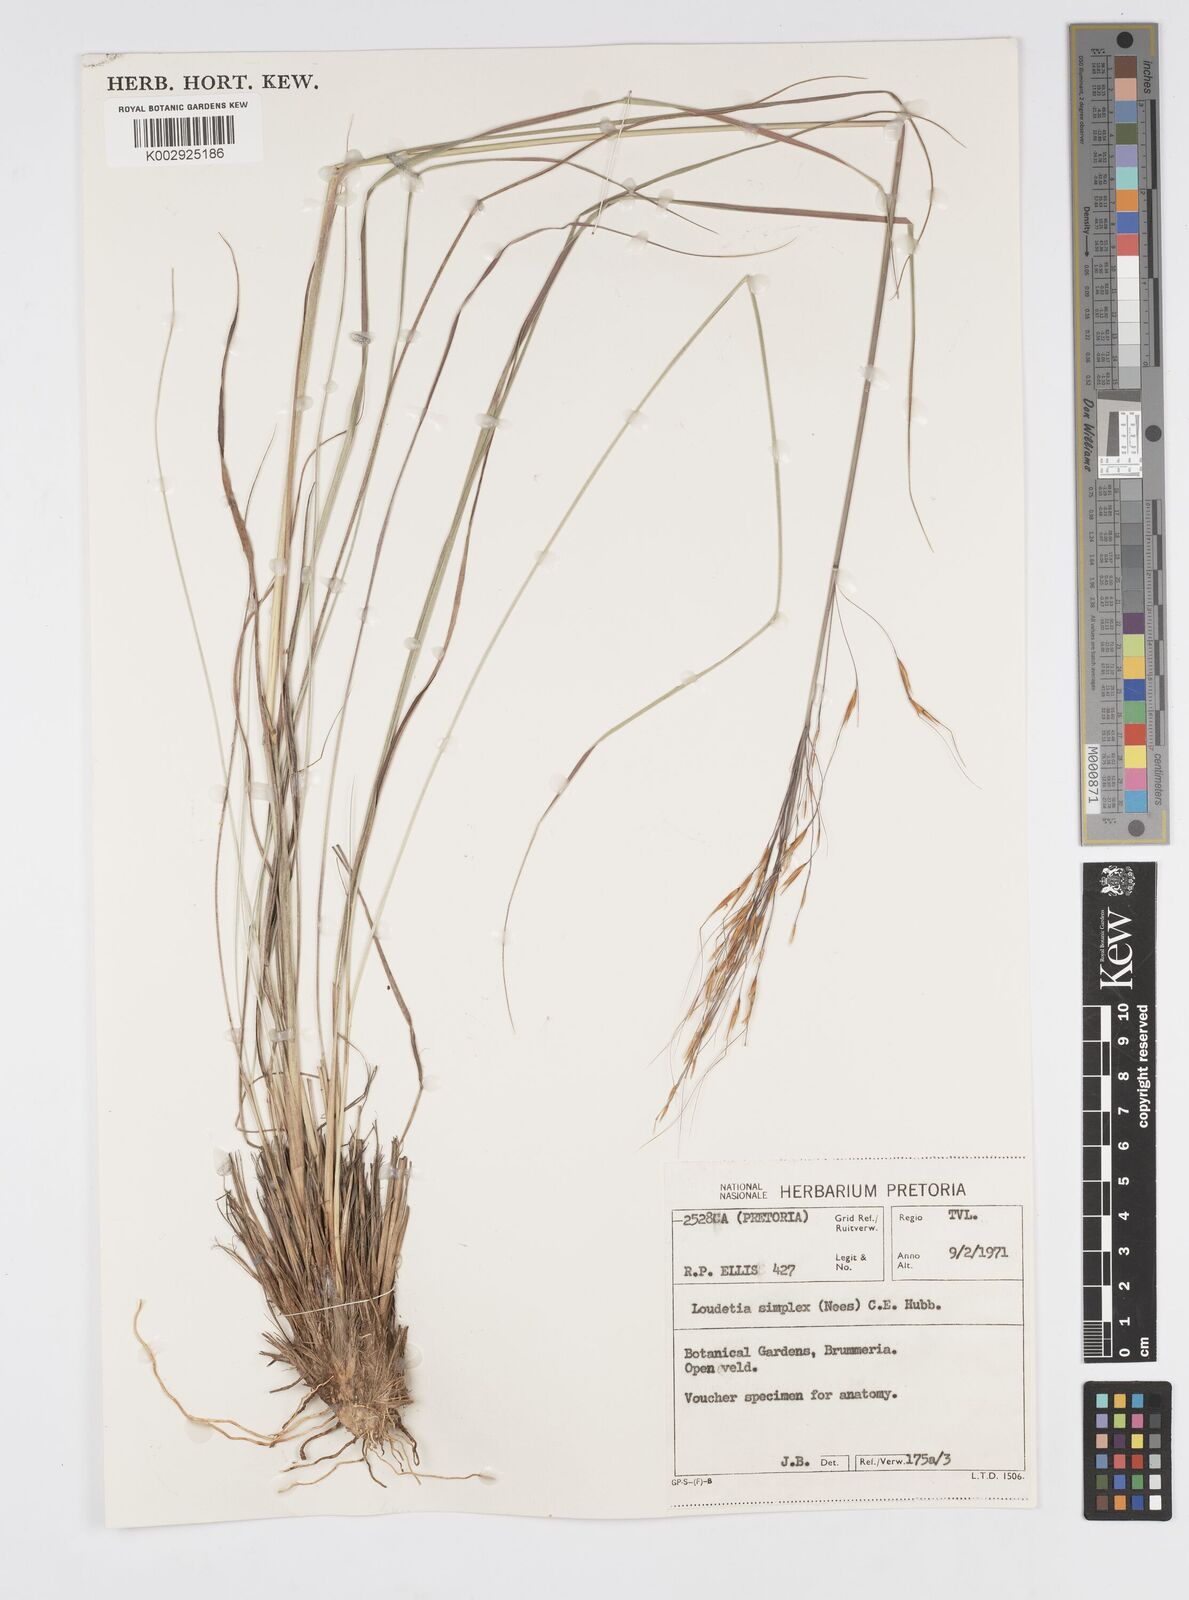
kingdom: Plantae
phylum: Tracheophyta
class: Liliopsida
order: Poales
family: Poaceae
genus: Loudetia
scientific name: Loudetia simplex
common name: Common russet grass
